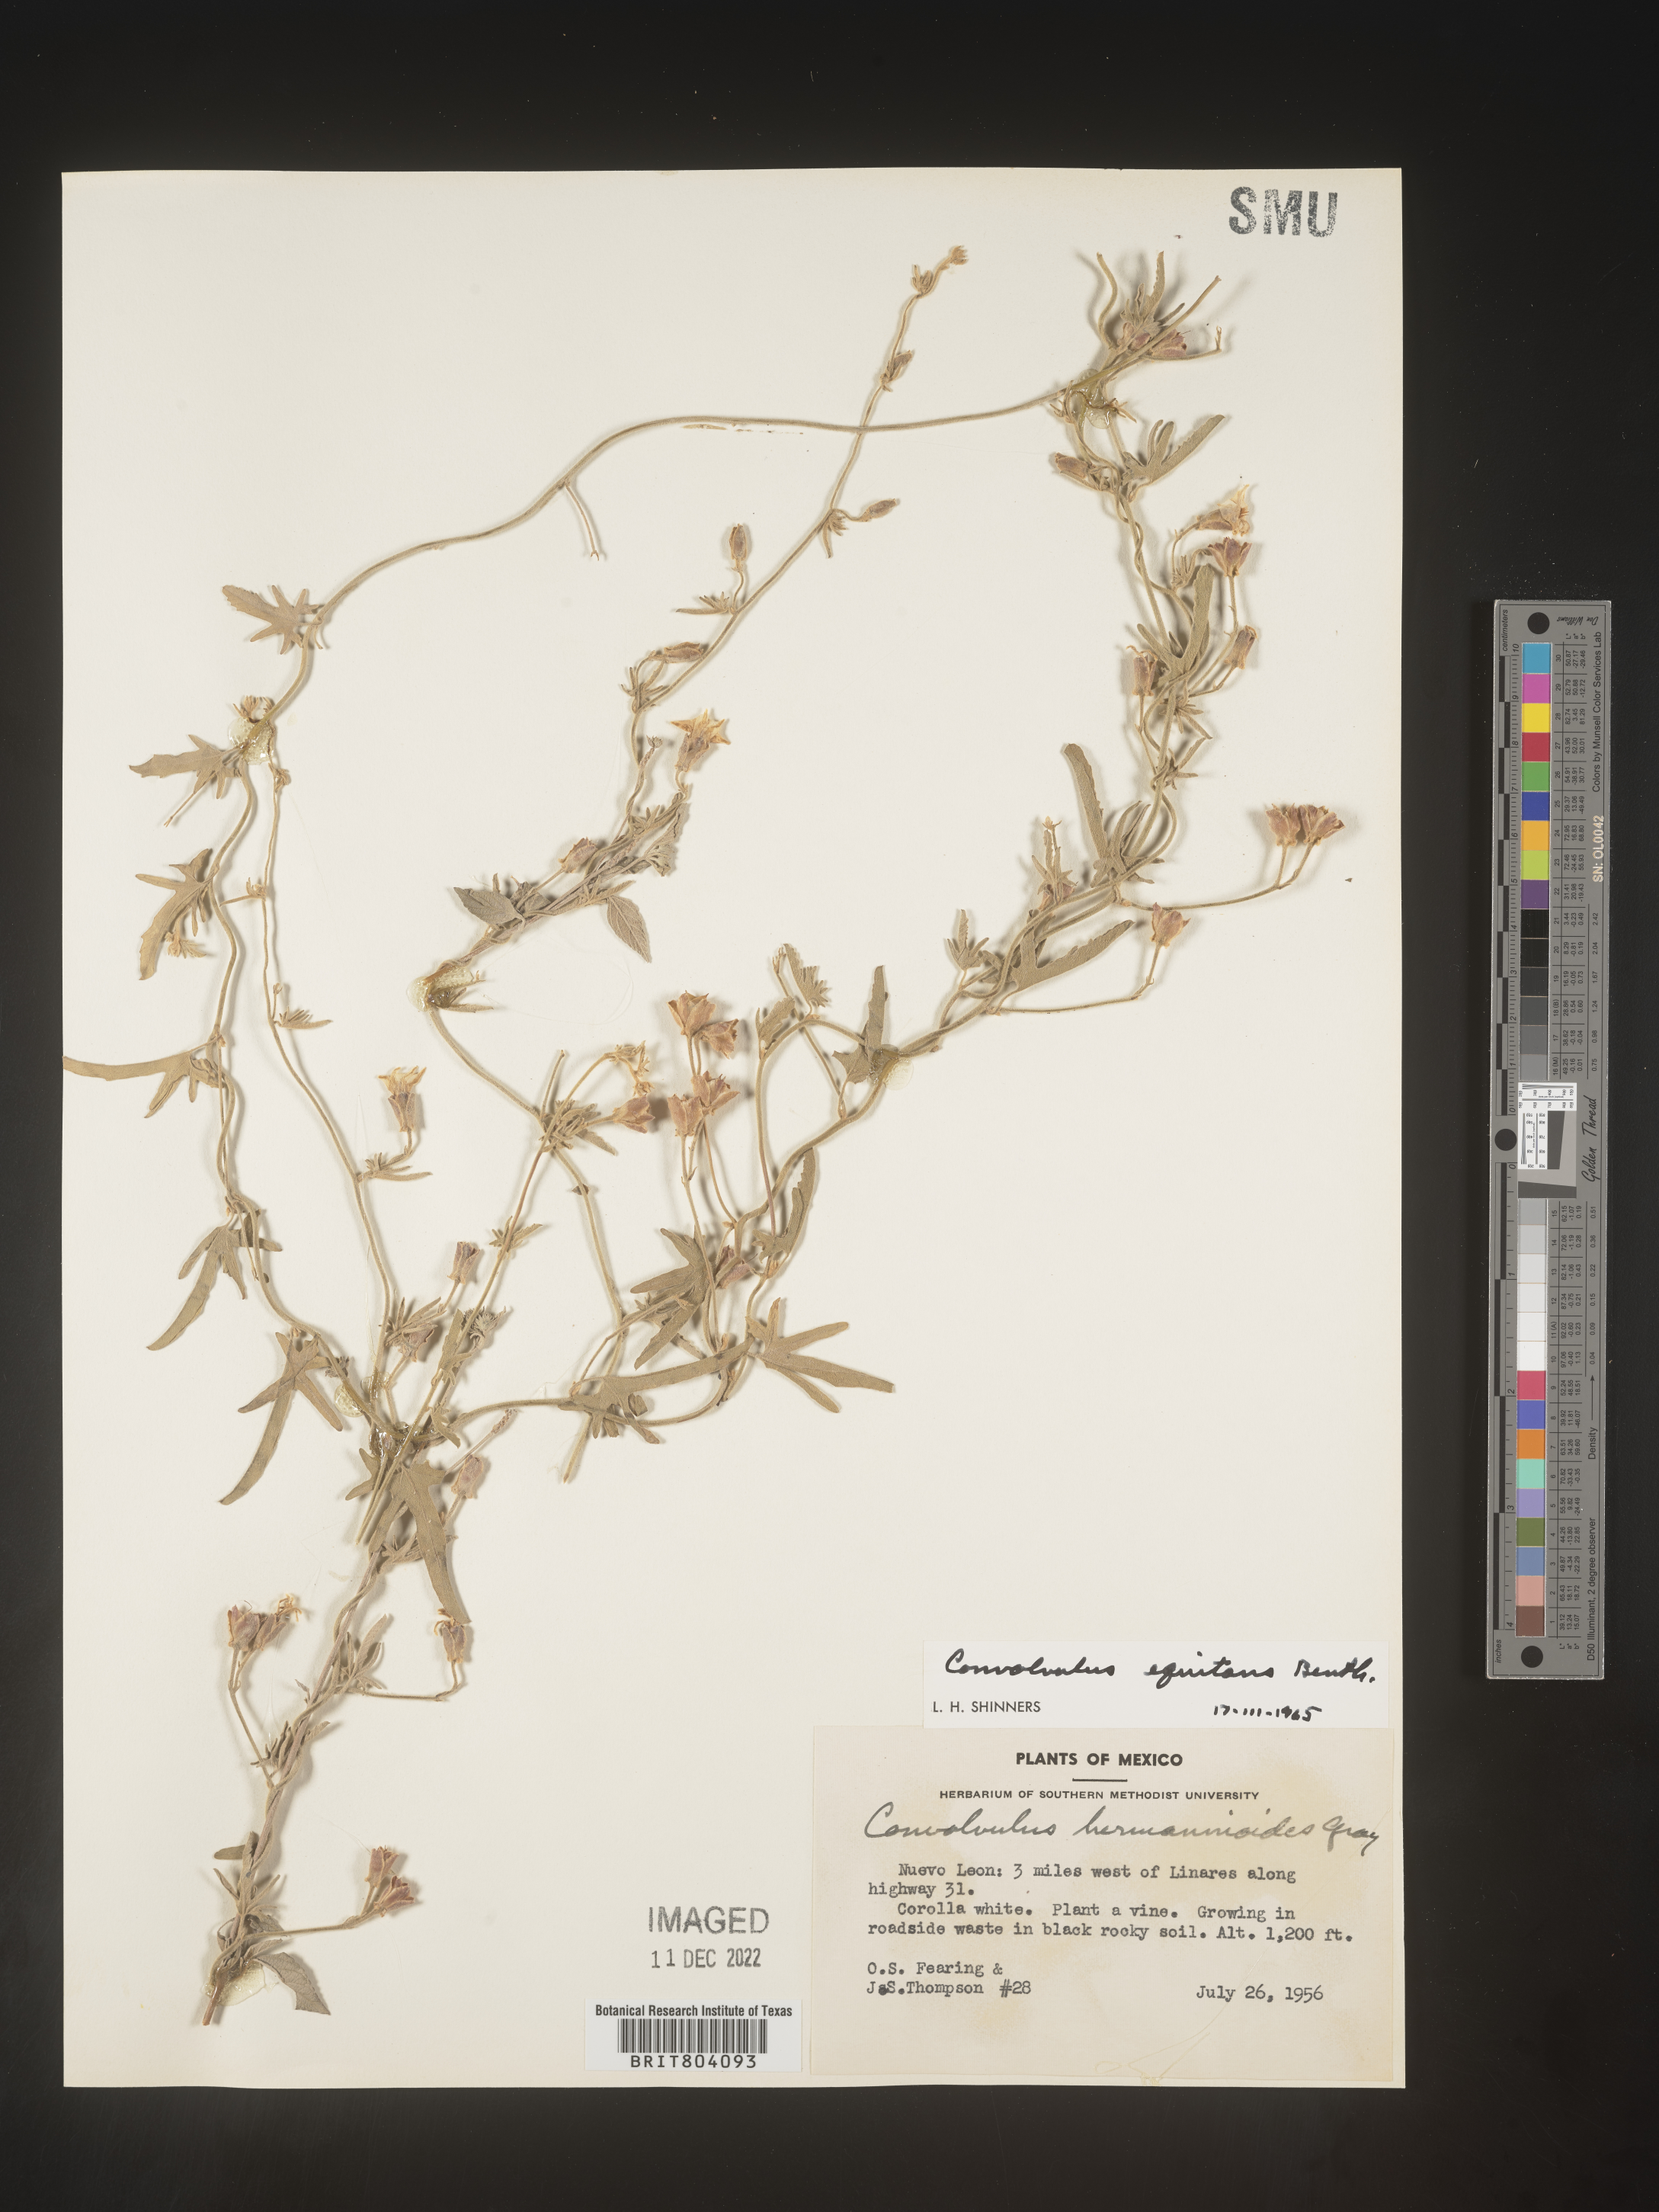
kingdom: Plantae
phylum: Tracheophyta
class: Magnoliopsida
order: Solanales
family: Convolvulaceae
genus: Convolvulus
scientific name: Convolvulus
